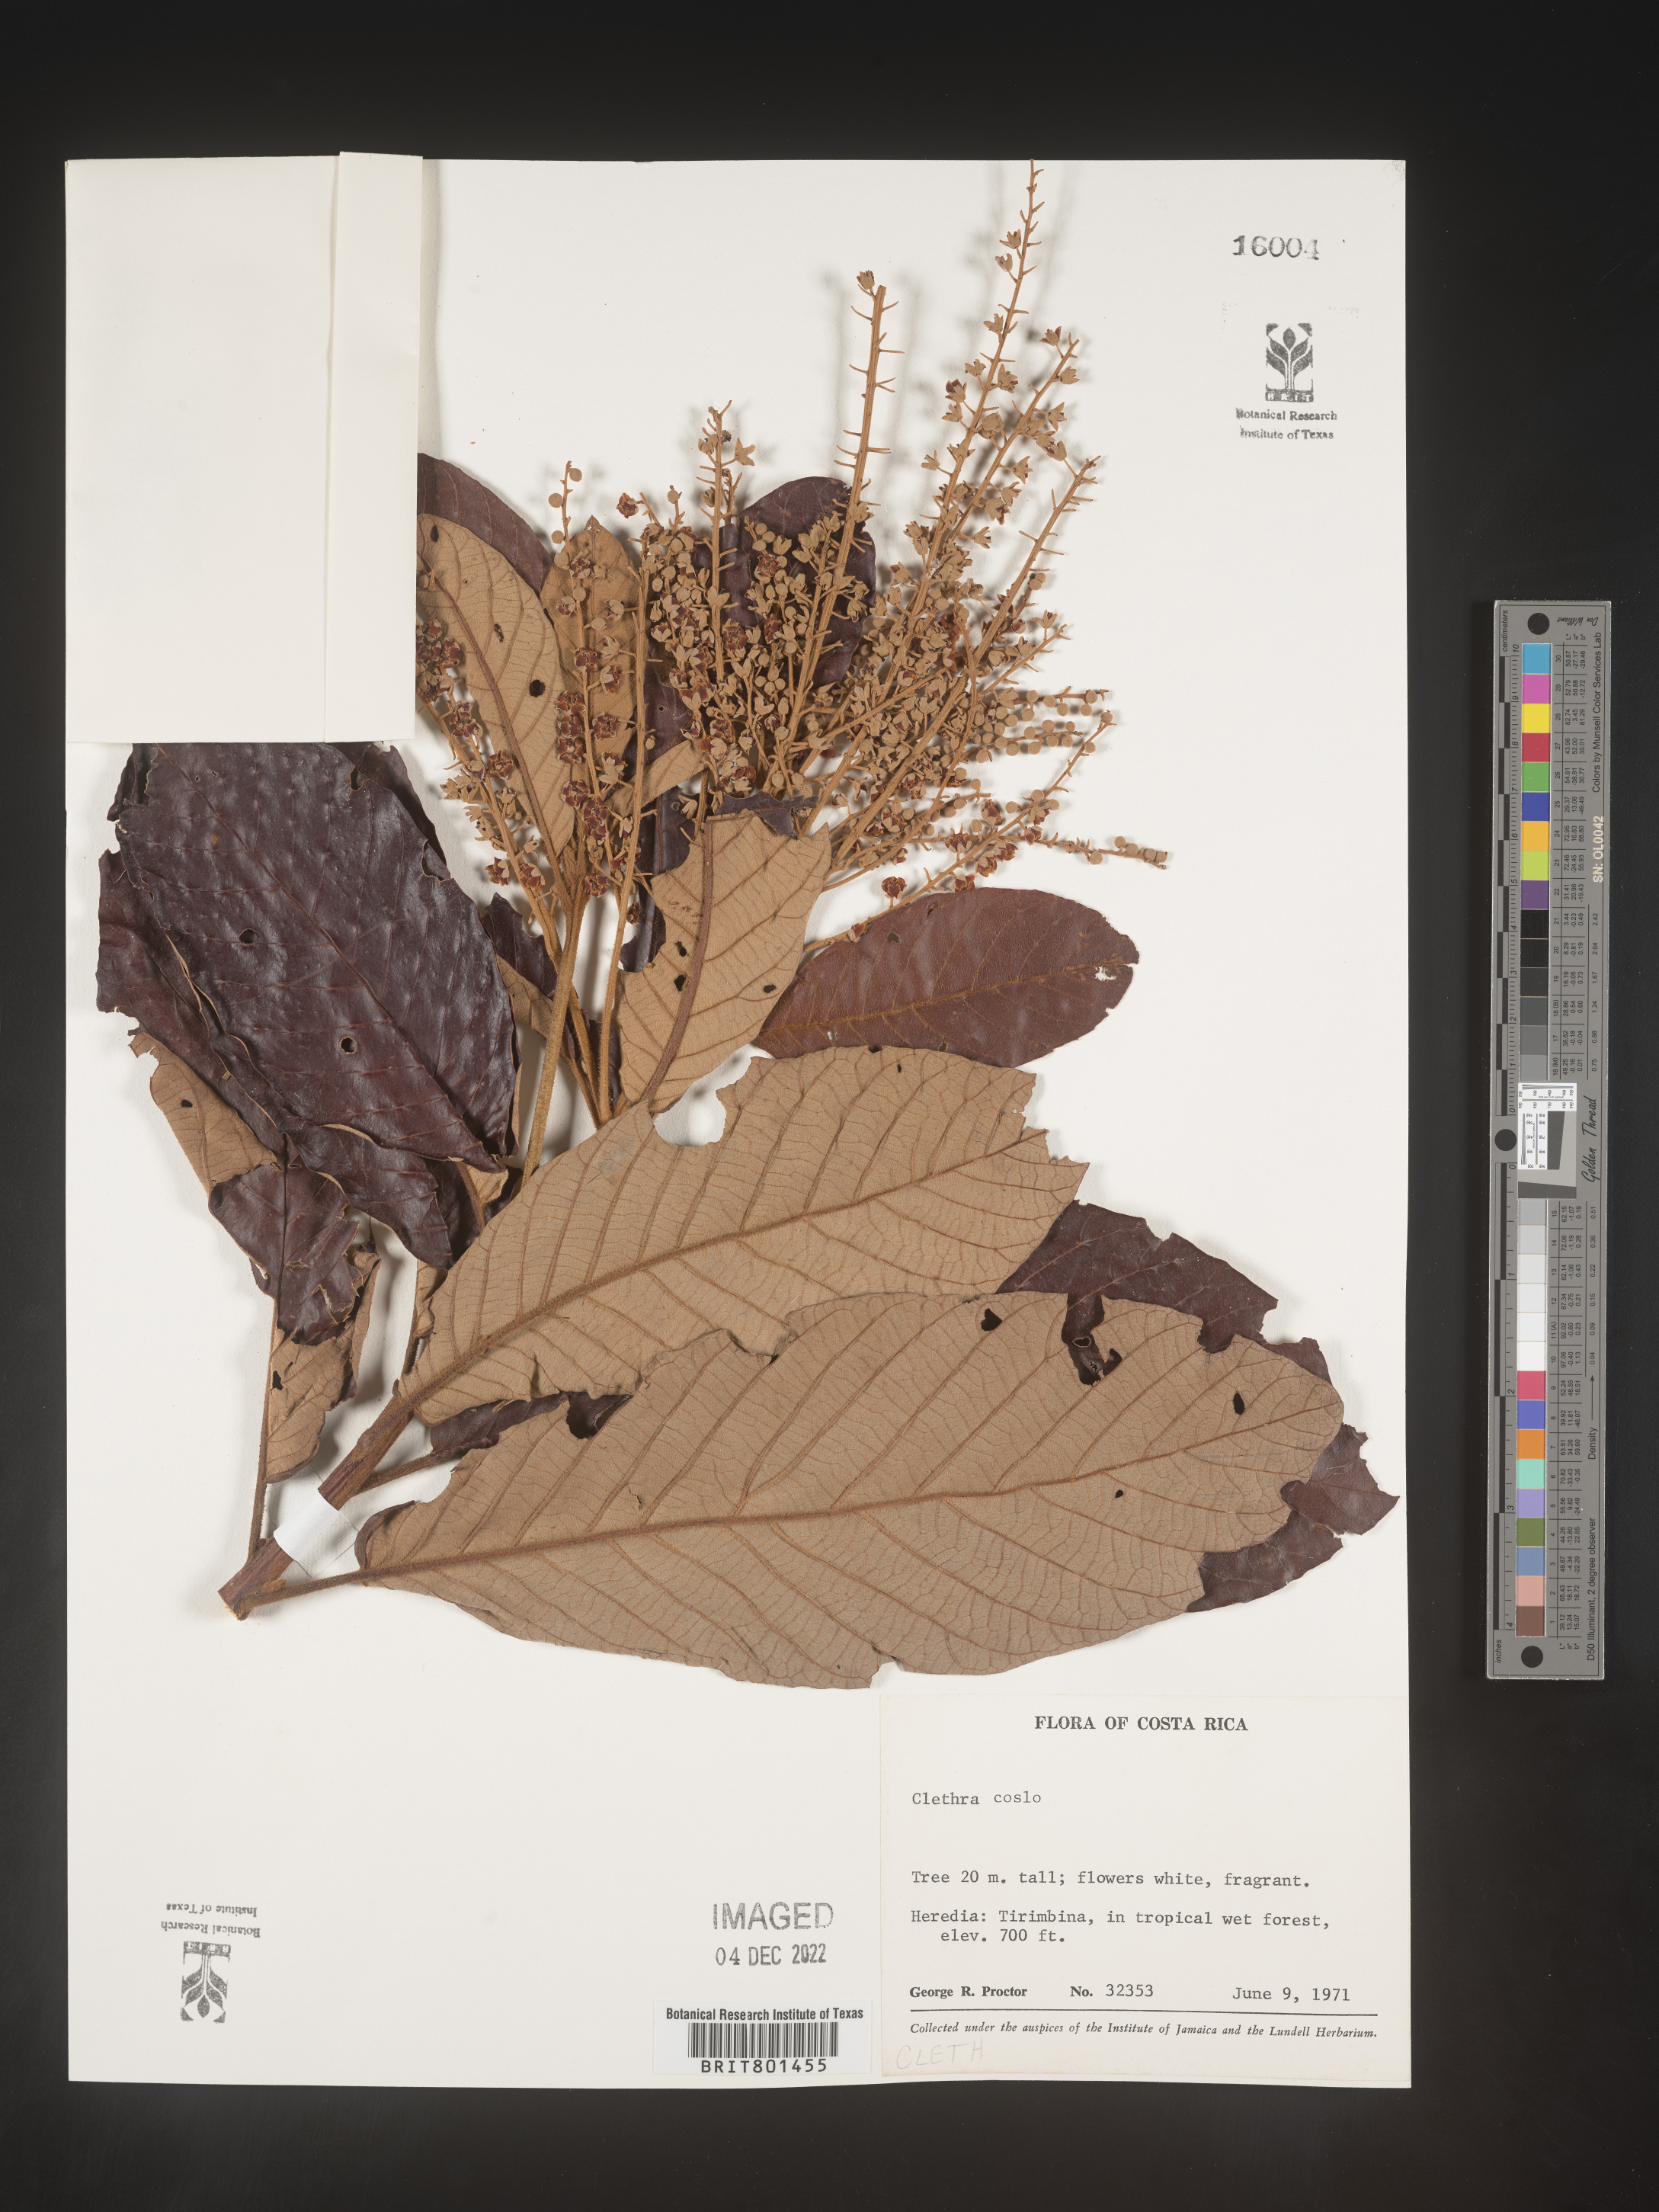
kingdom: Plantae
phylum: Tracheophyta
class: Magnoliopsida
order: Ericales
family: Clethraceae
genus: Clethra
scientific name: Clethra
